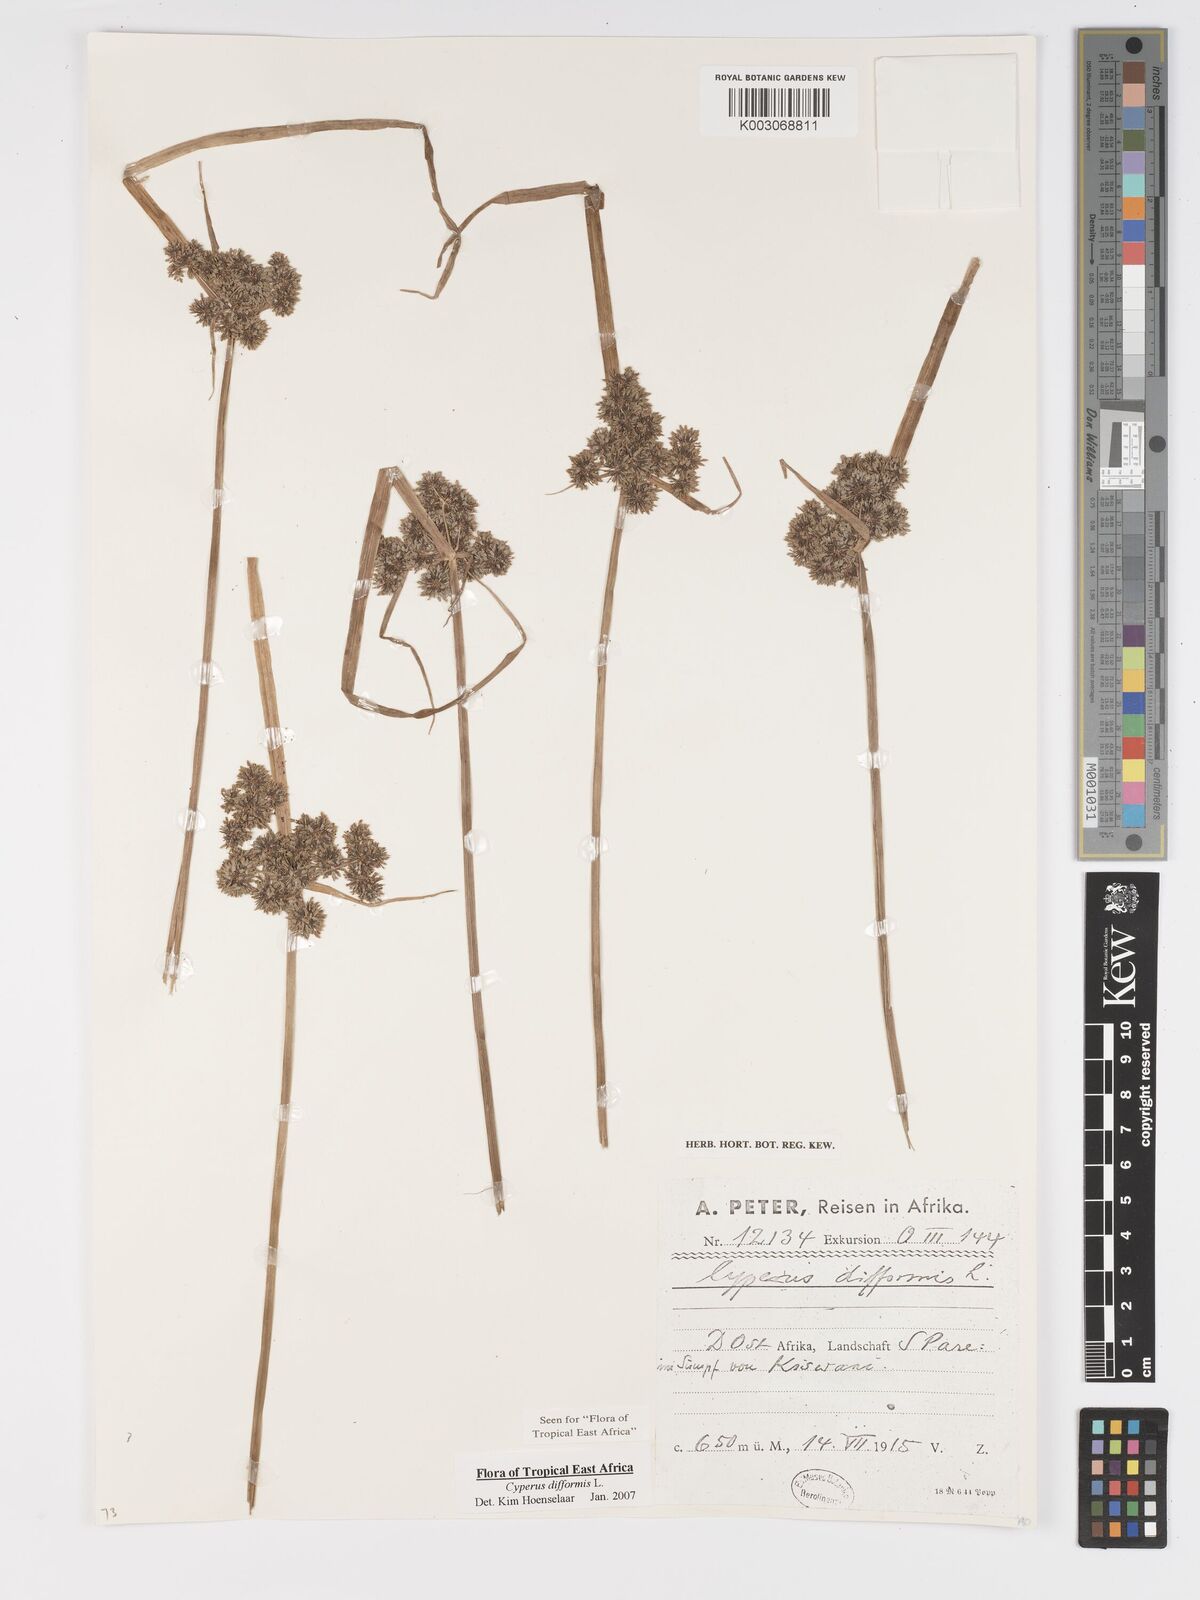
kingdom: Plantae
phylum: Tracheophyta
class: Liliopsida
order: Poales
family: Cyperaceae
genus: Cyperus
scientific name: Cyperus difformis
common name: Variable flatsedge
